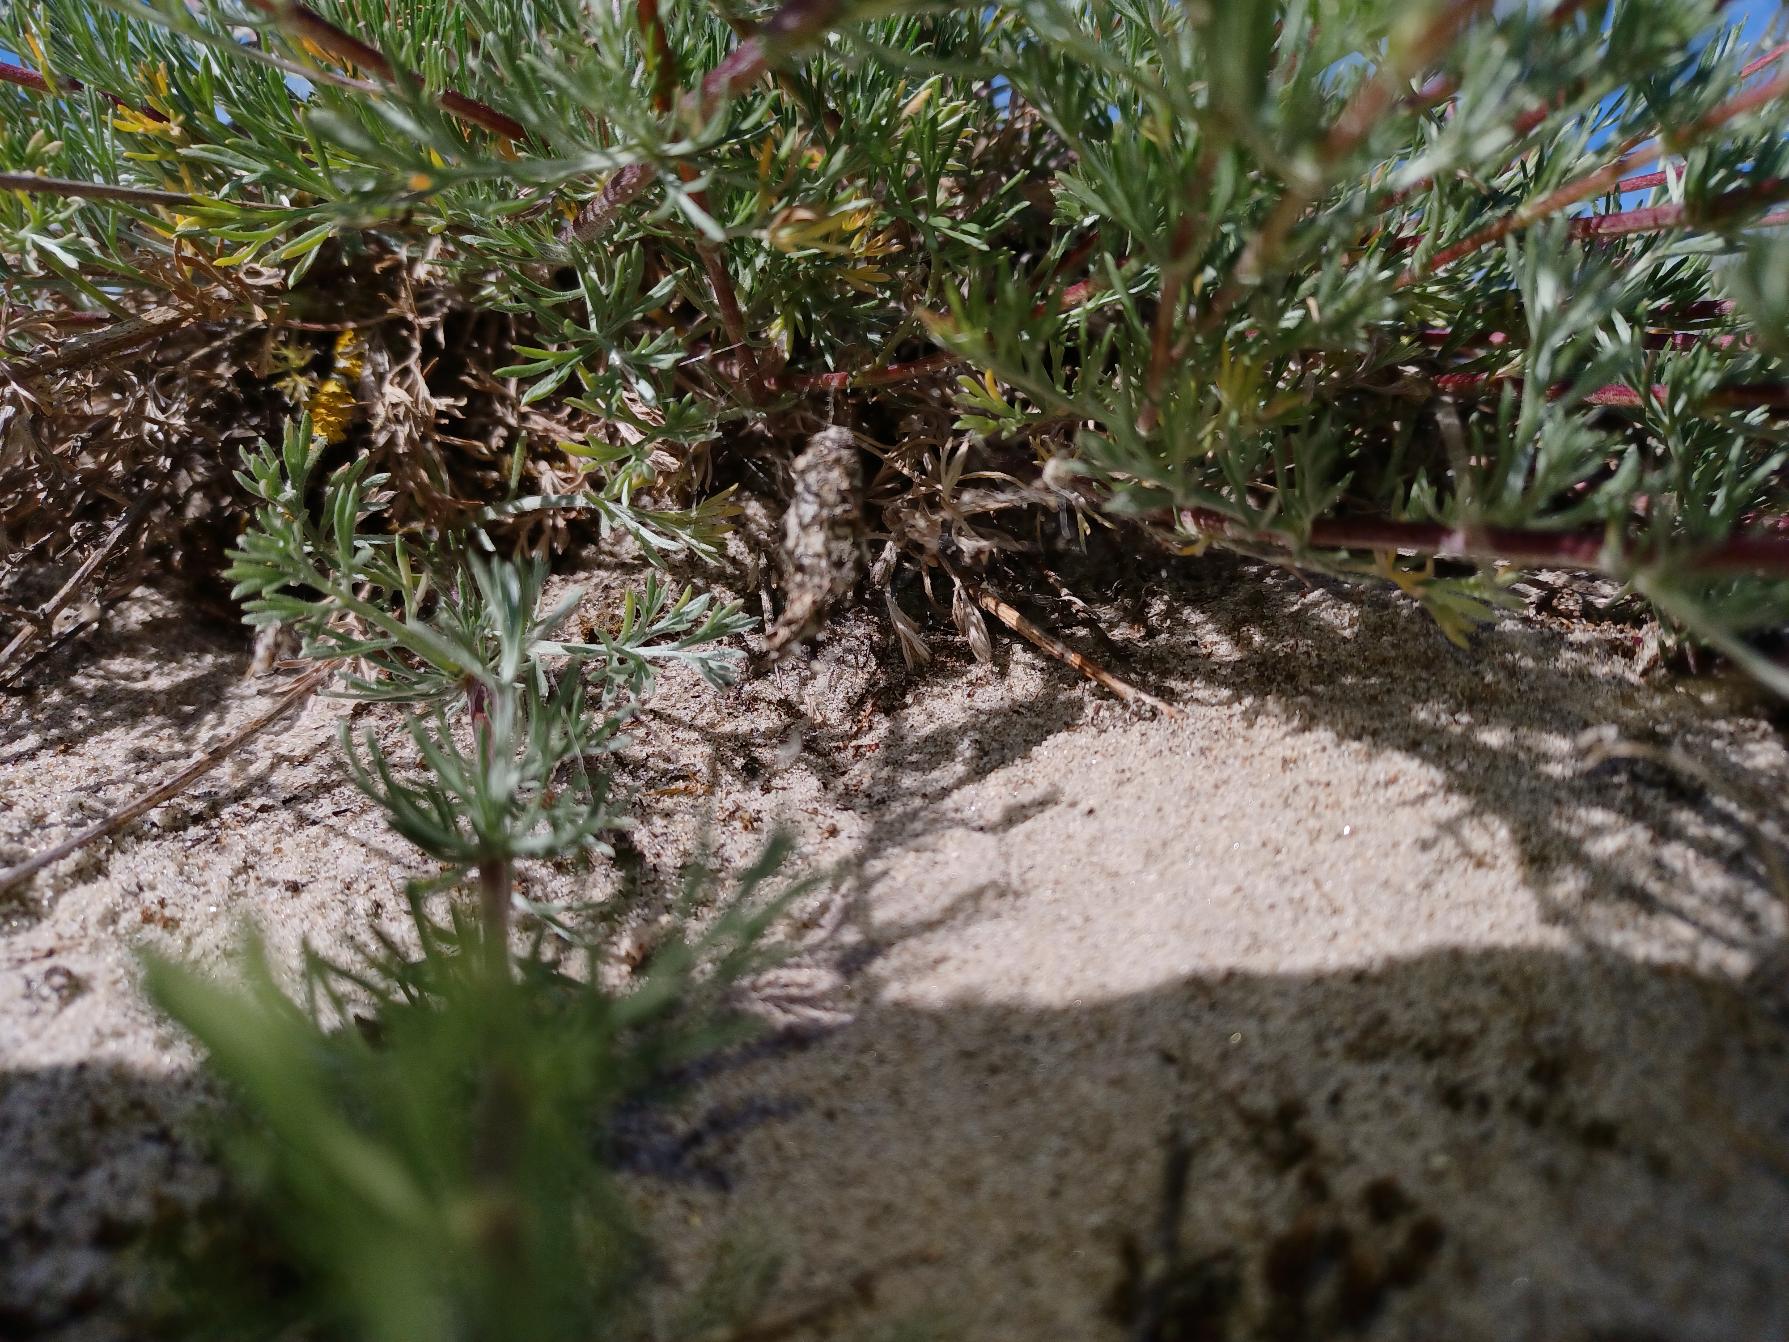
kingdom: Animalia
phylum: Arthropoda
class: Arachnida
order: Araneae
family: Theridiidae
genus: Cryptachaea
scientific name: Cryptachaea riparia
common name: Sandhyttespinder
